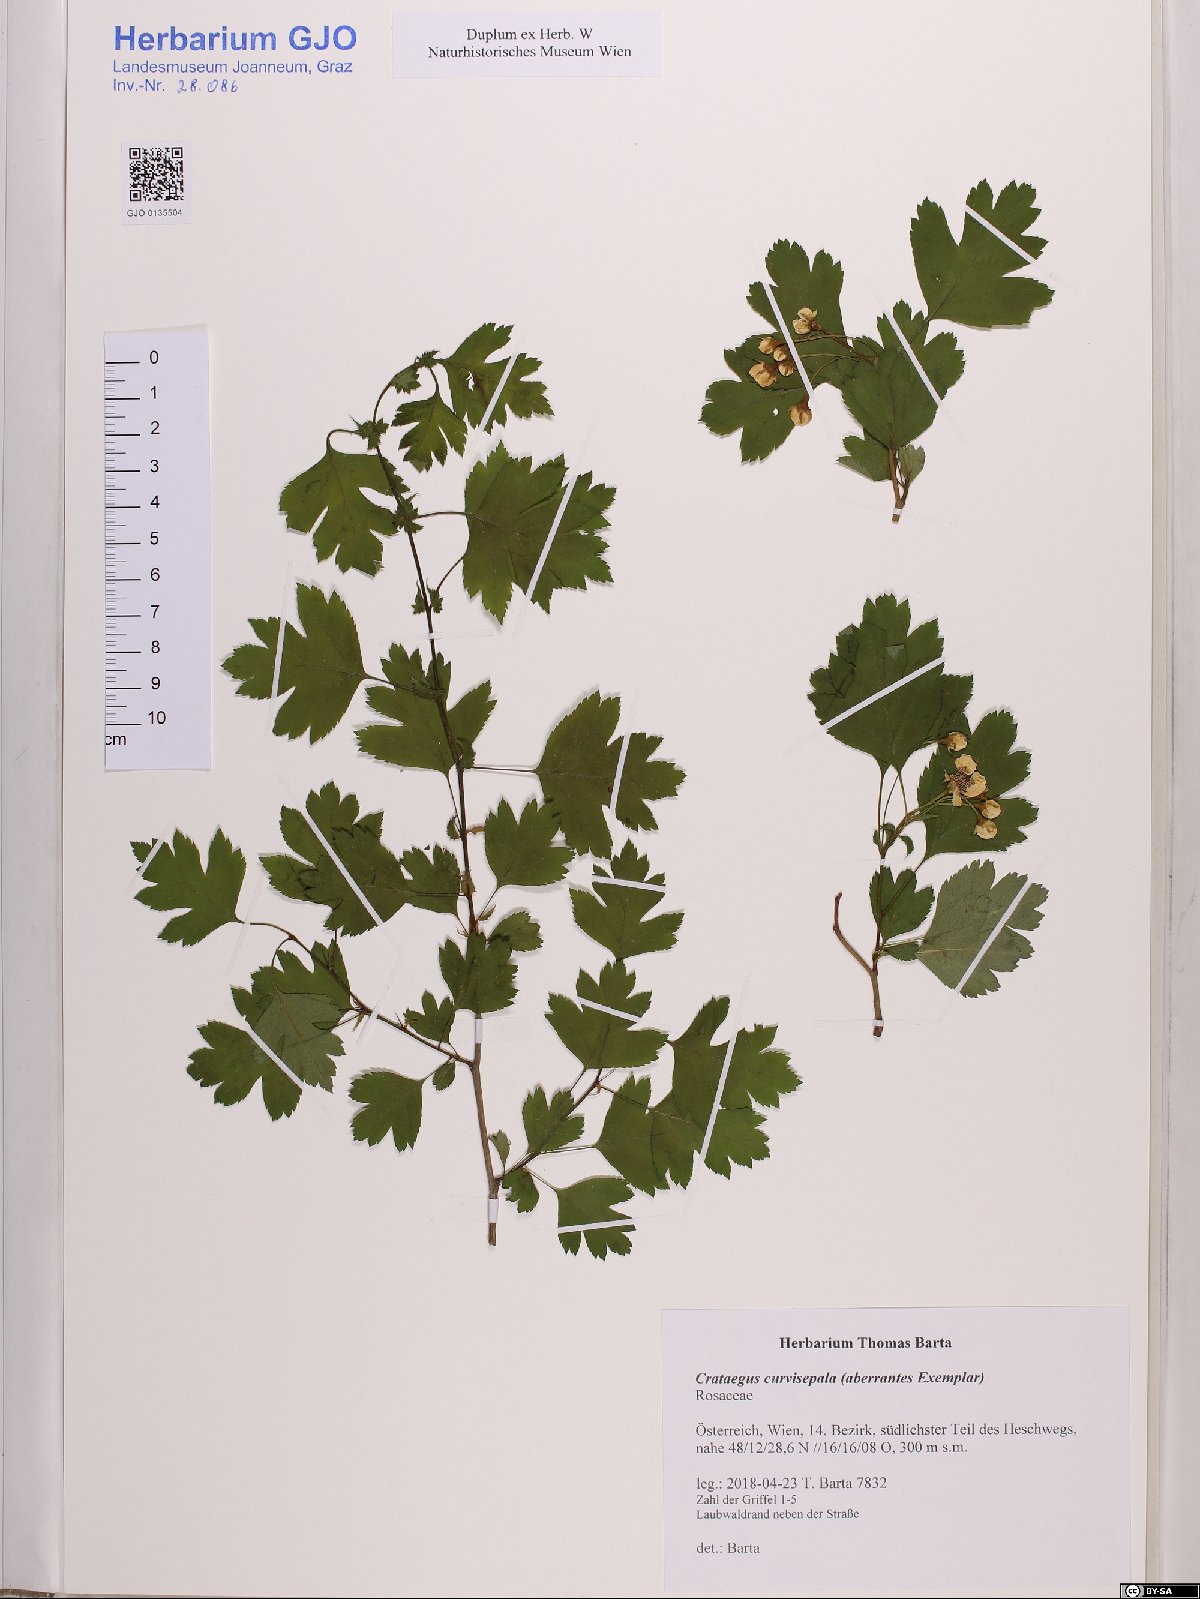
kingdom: Plantae
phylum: Tracheophyta
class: Magnoliopsida
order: Rosales
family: Rosaceae
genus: Crataegus
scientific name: Crataegus praemonticola
